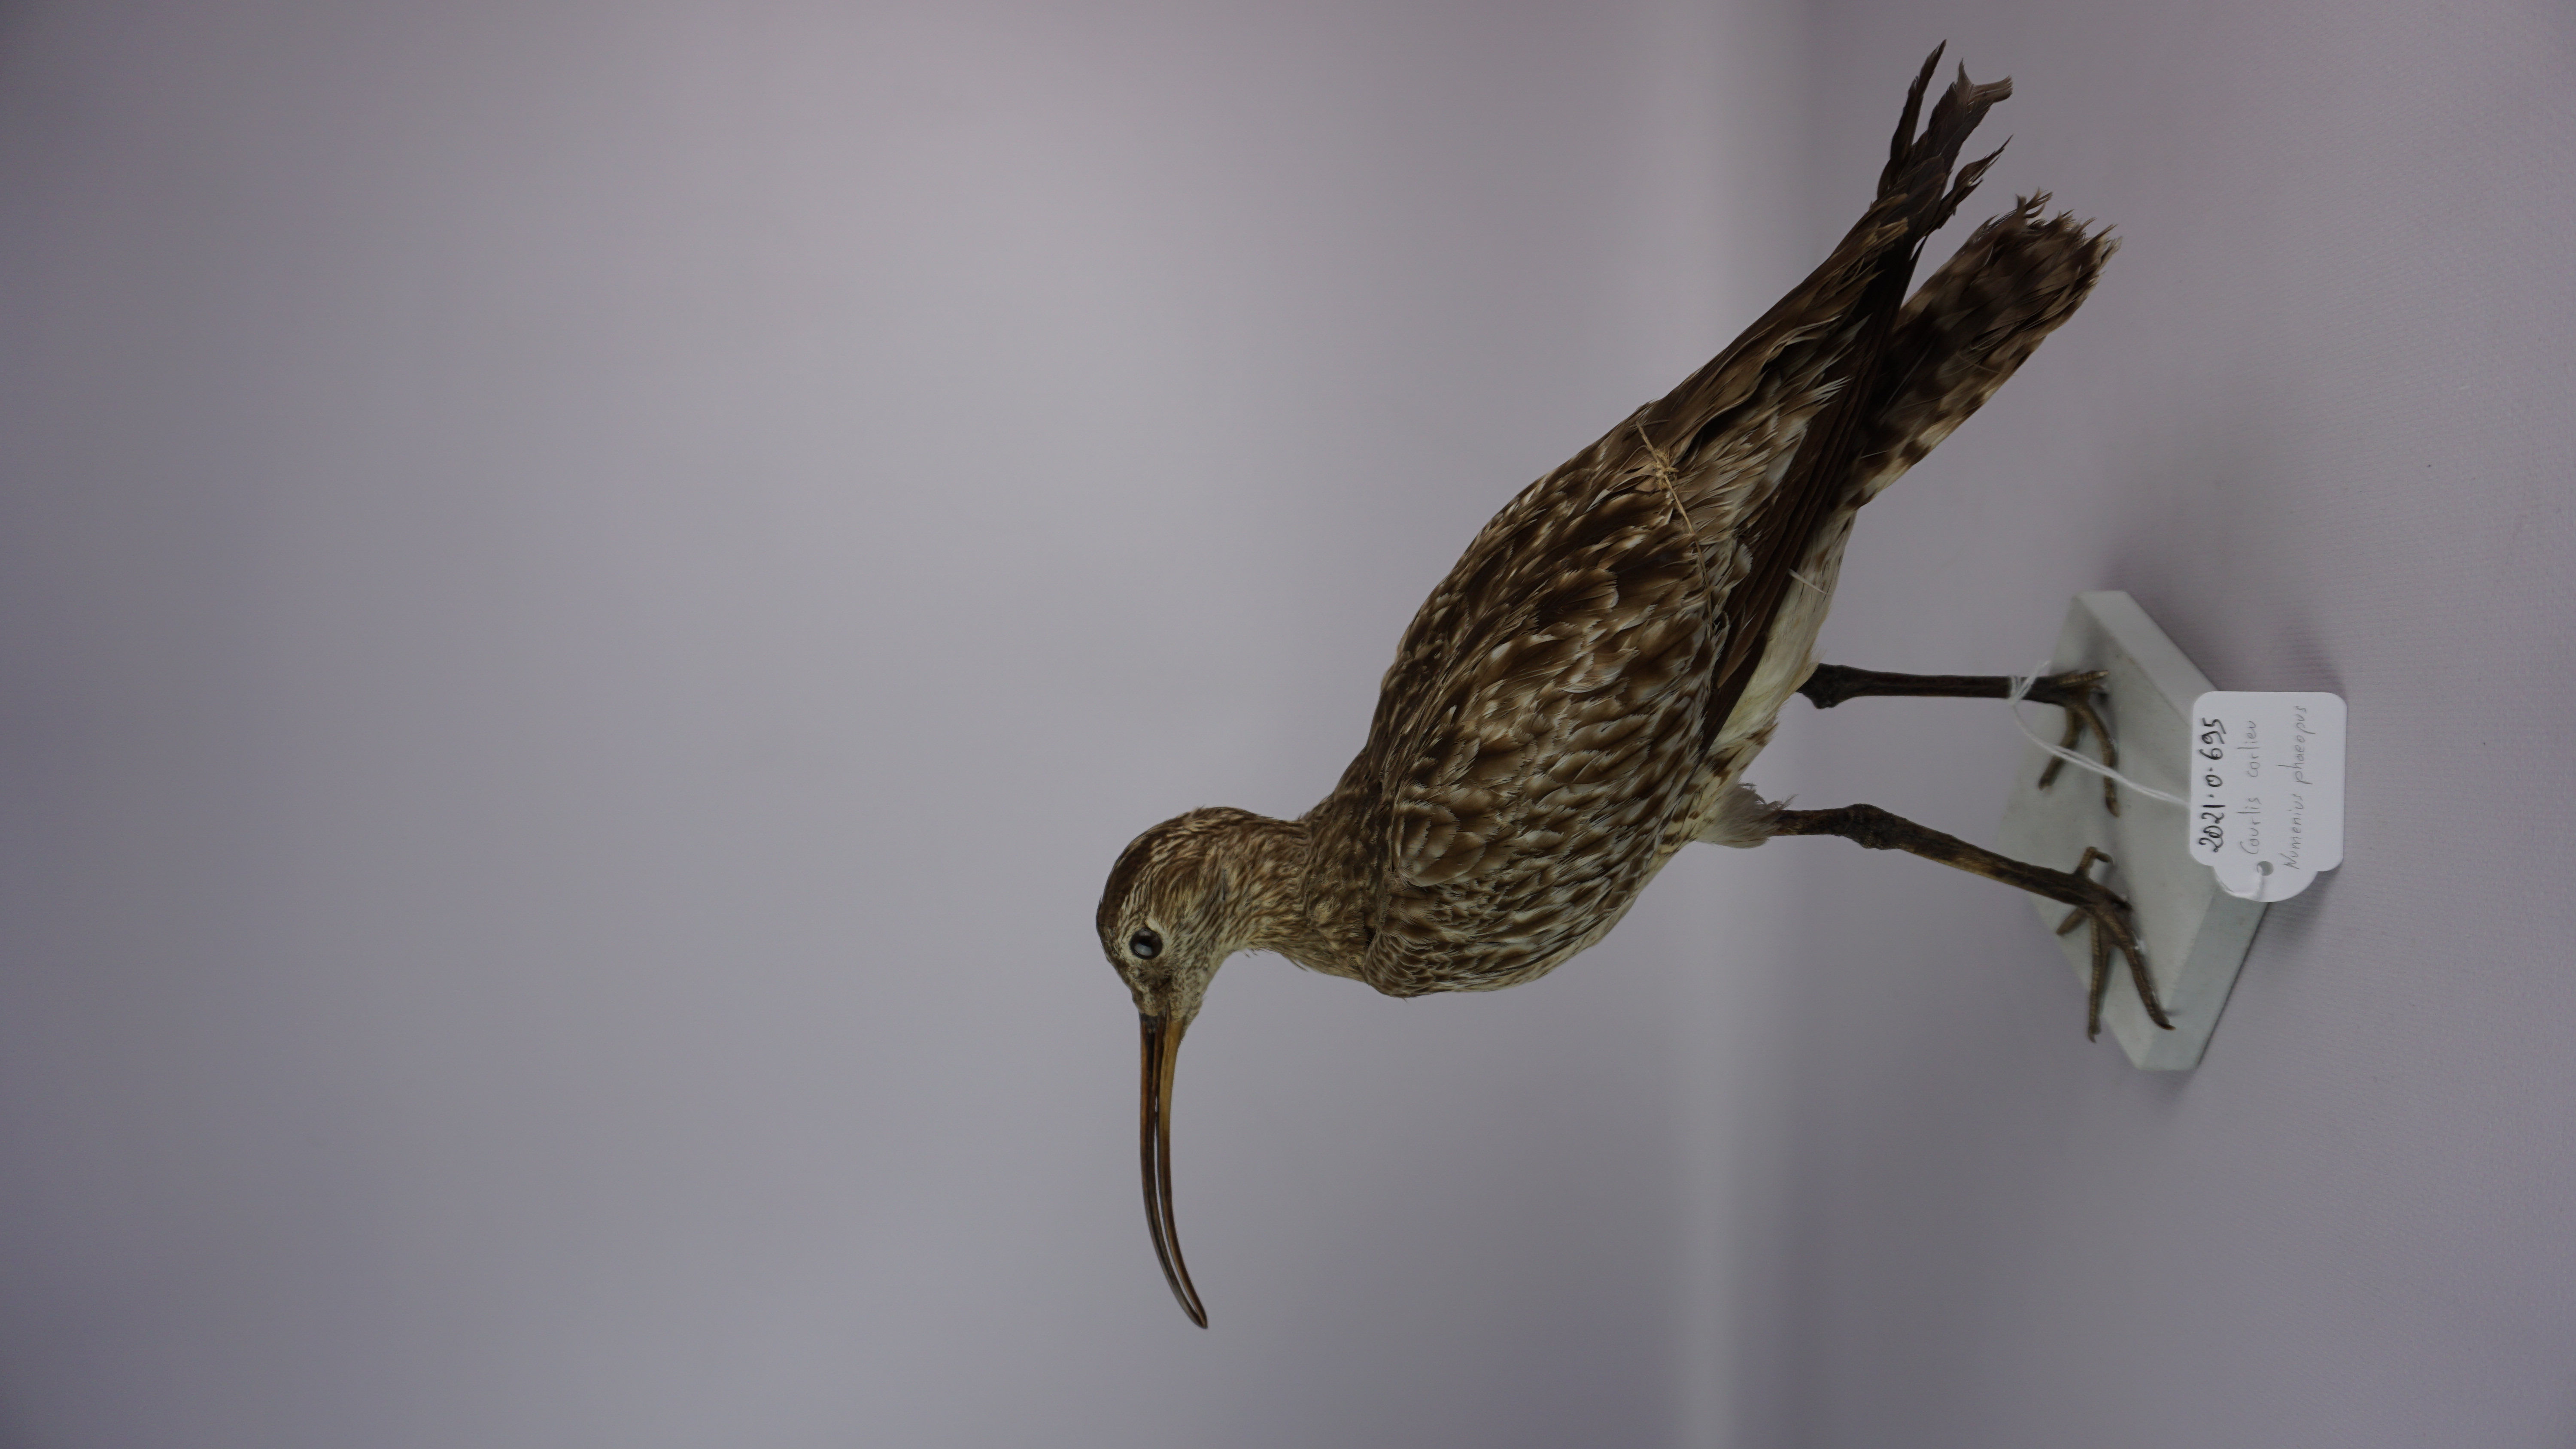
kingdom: Animalia
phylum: Chordata
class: Aves
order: Charadriiformes
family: Scolopacidae
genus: Numenius
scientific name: Numenius phaeopus
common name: Whimbrel
